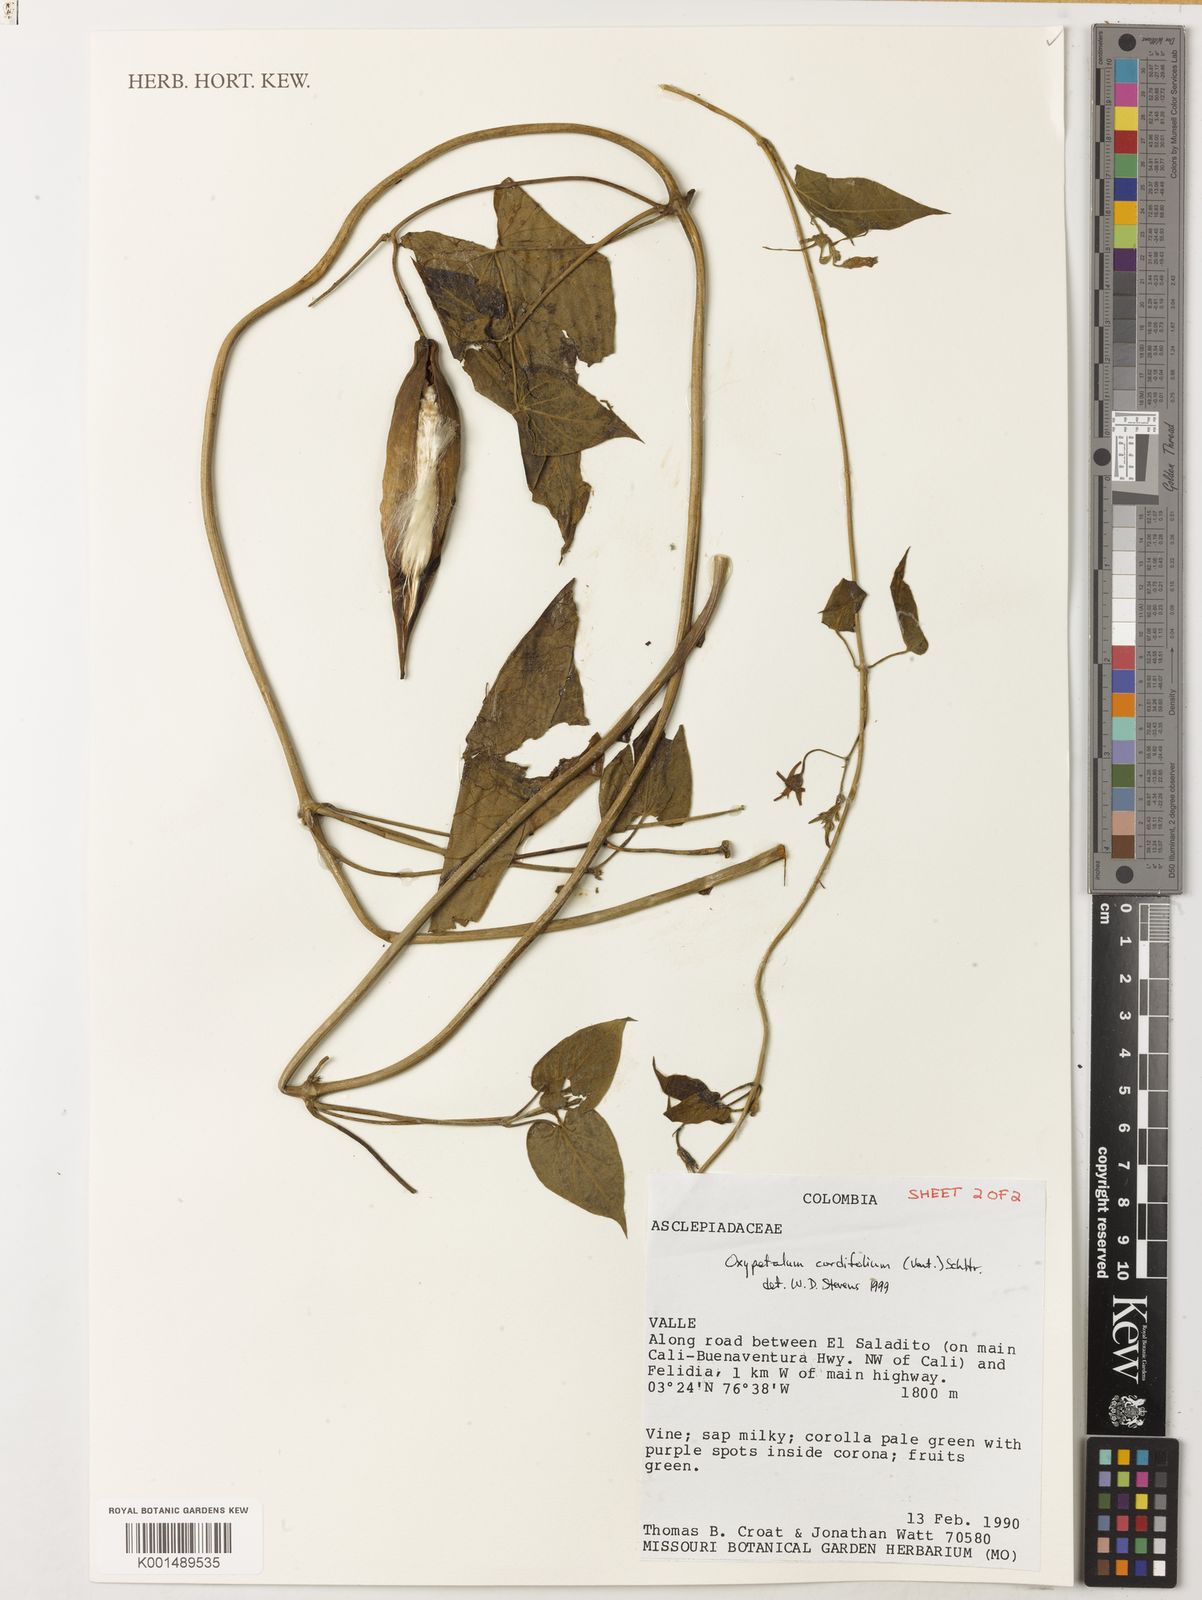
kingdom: Plantae
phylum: Tracheophyta
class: Magnoliopsida
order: Gentianales
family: Apocynaceae
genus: Oxypetalum
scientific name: Oxypetalum cordifolium
